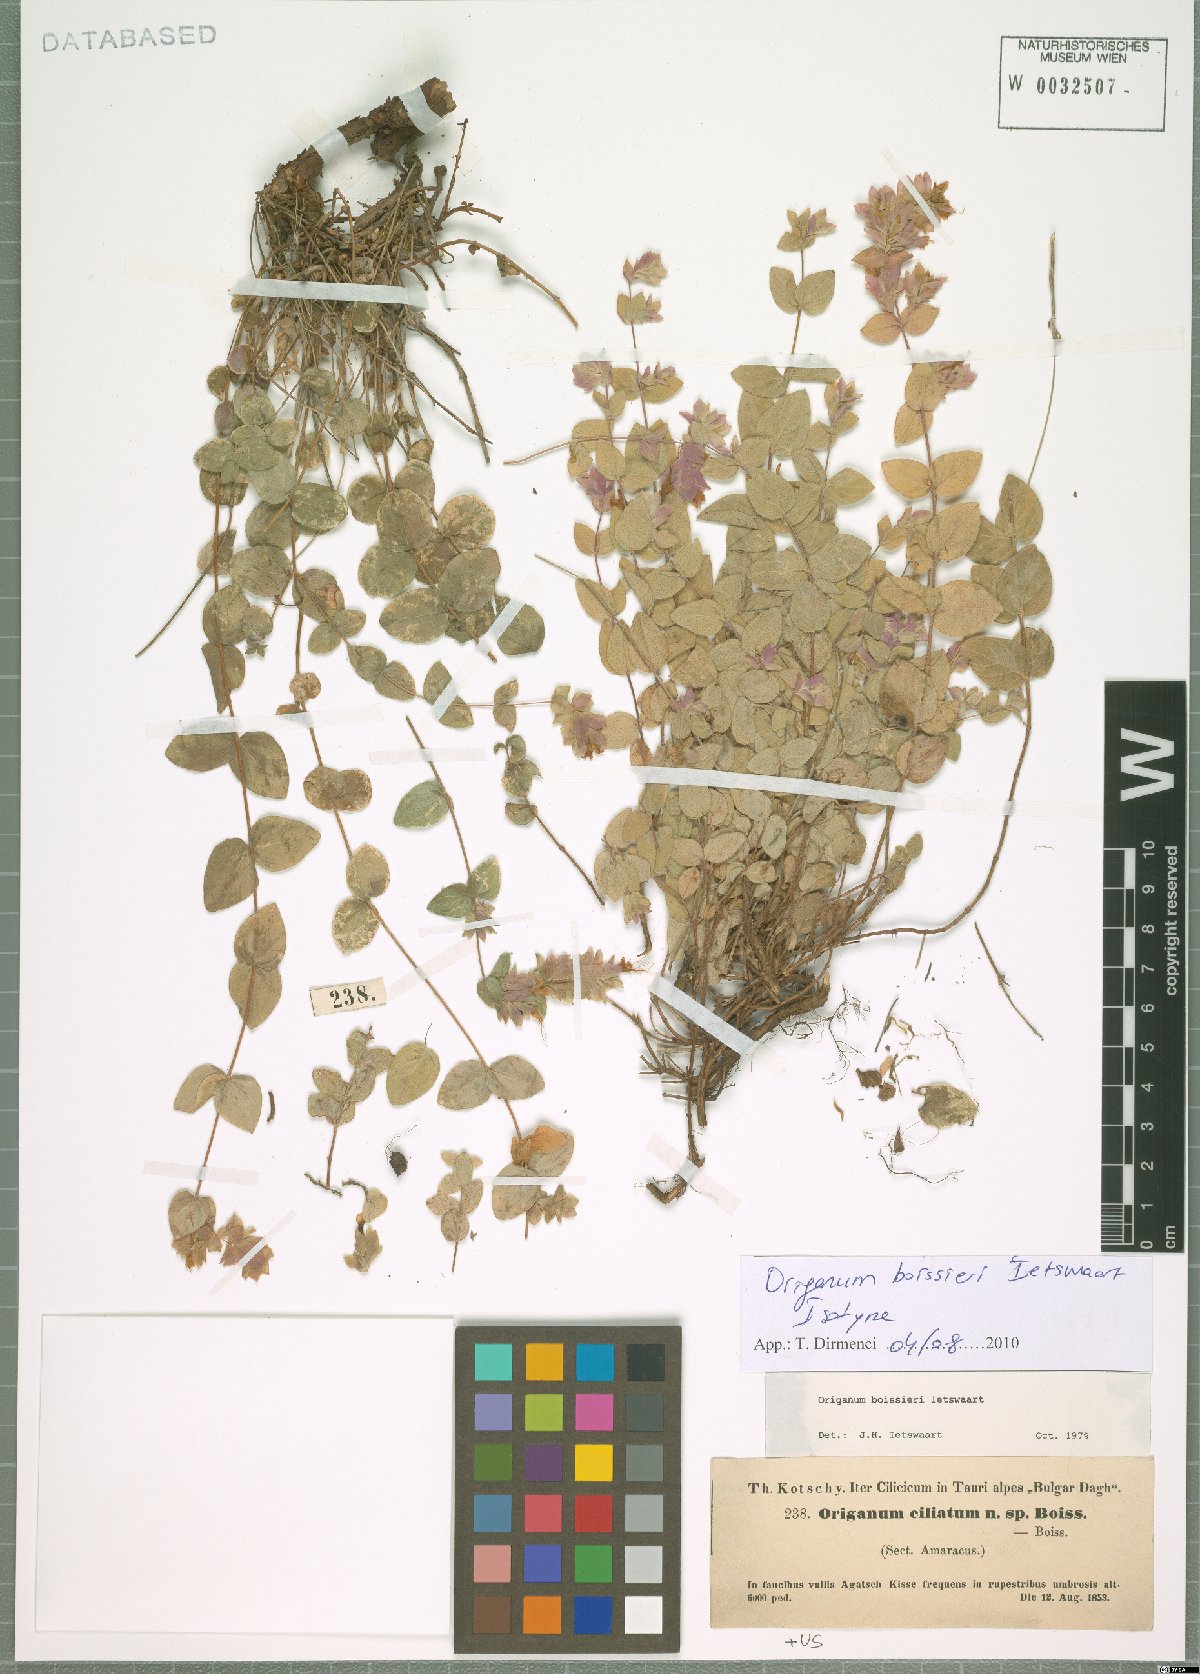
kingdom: Plantae
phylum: Tracheophyta
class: Magnoliopsida
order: Lamiales
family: Lamiaceae
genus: Origanum
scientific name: Origanum boissieri
